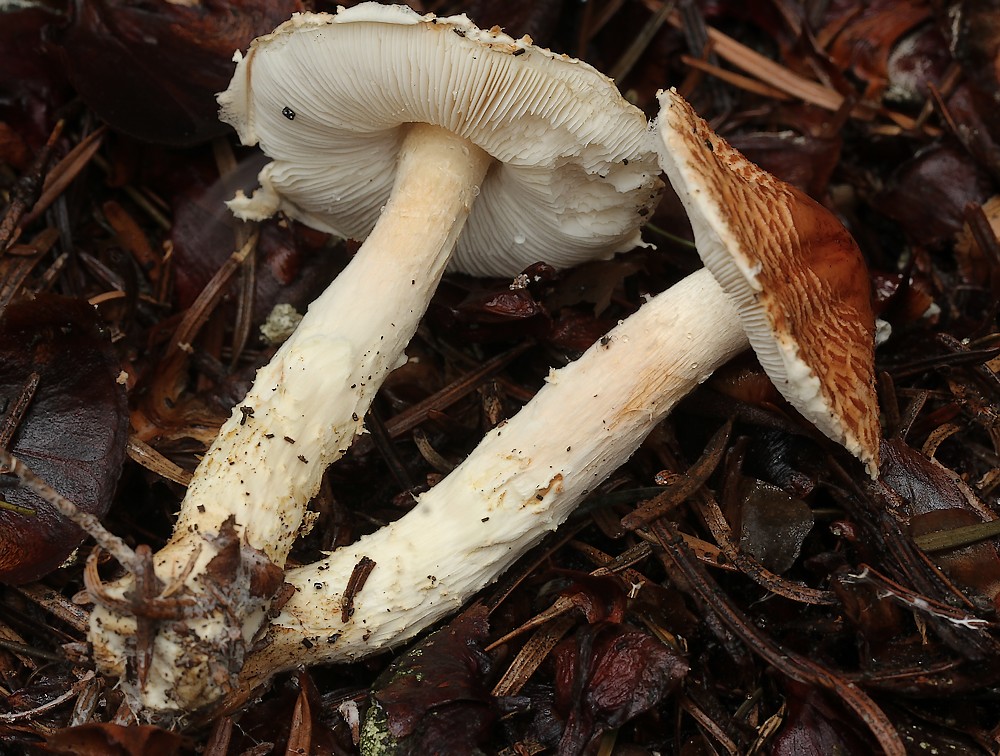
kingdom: Fungi
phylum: Basidiomycota
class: Agaricomycetes
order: Agaricales
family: Agaricaceae
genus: Lepiota
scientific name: Lepiota ochraceofulva
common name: sødtduftende parasolhat
